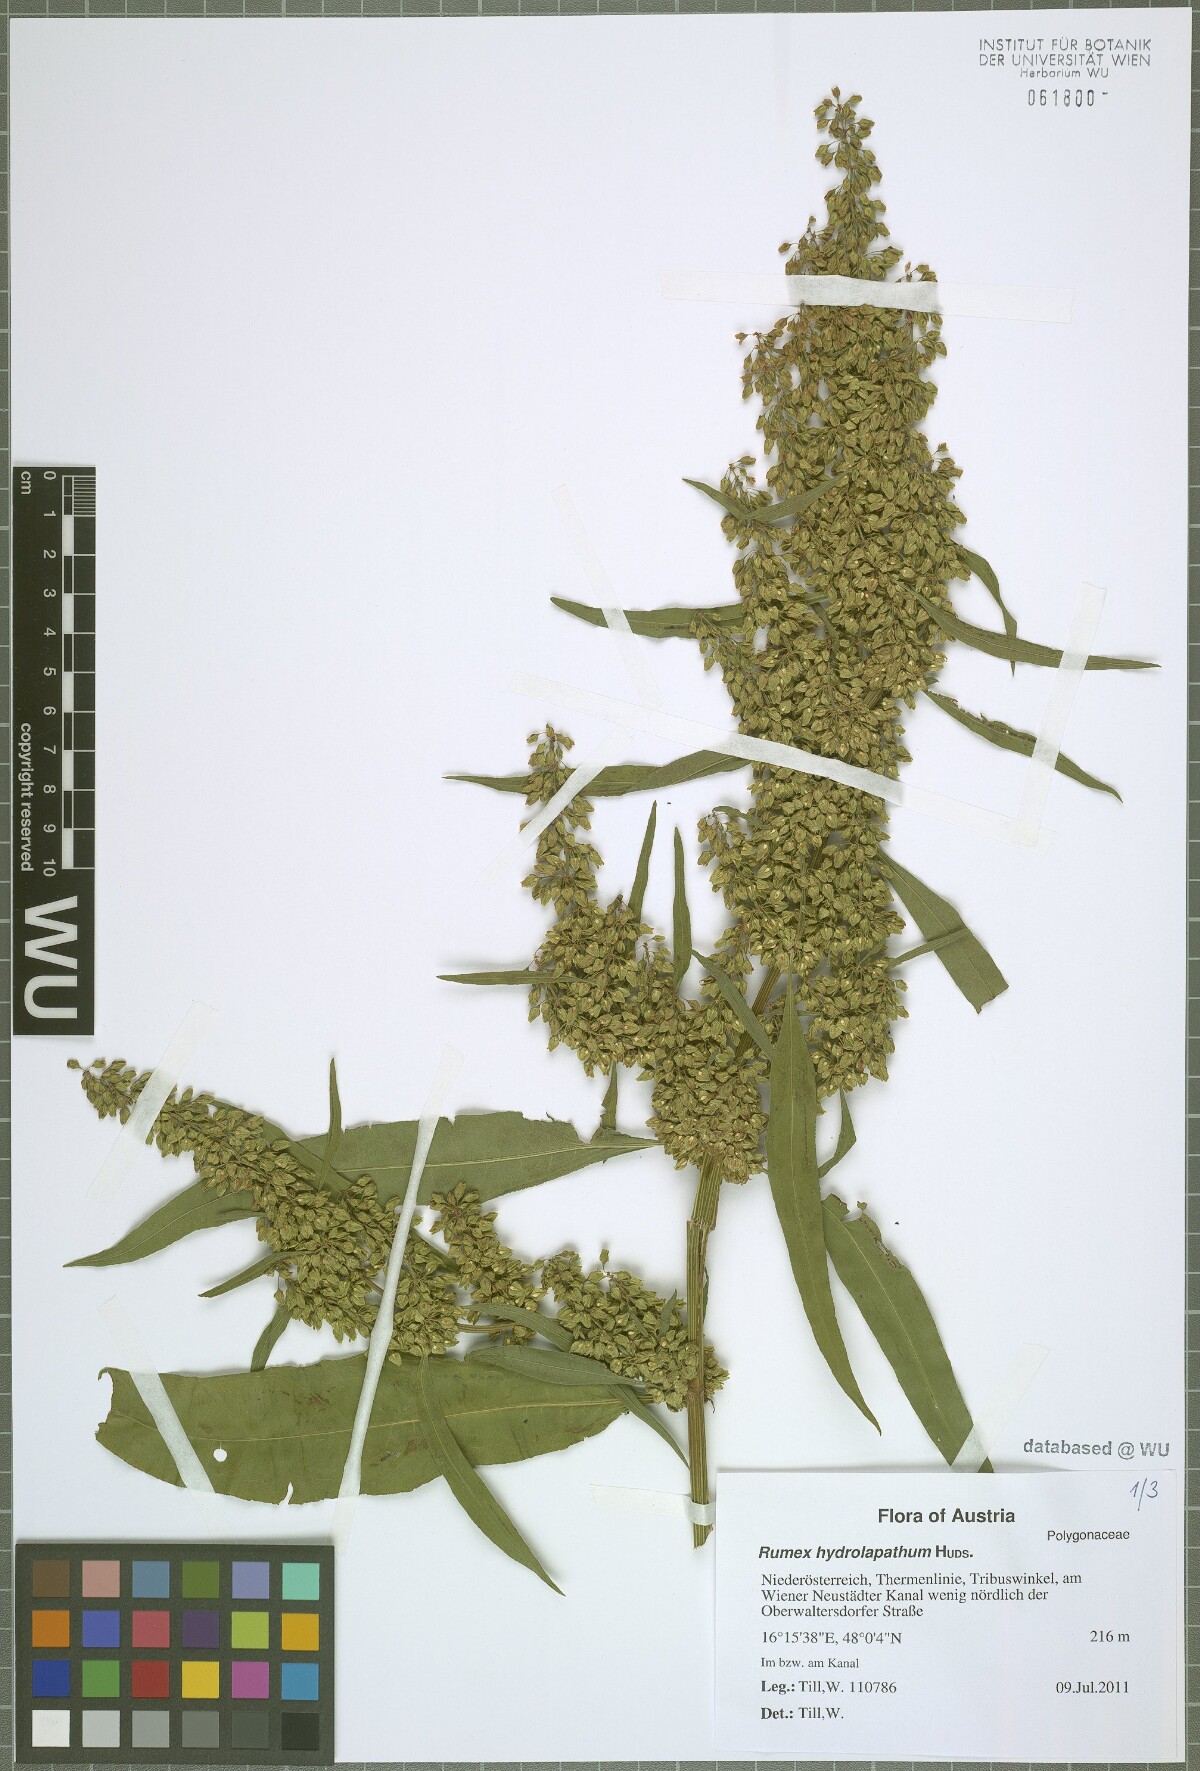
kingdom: Plantae
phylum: Tracheophyta
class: Magnoliopsida
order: Caryophyllales
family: Polygonaceae
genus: Rumex
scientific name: Rumex hydrolapathum
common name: Water dock
